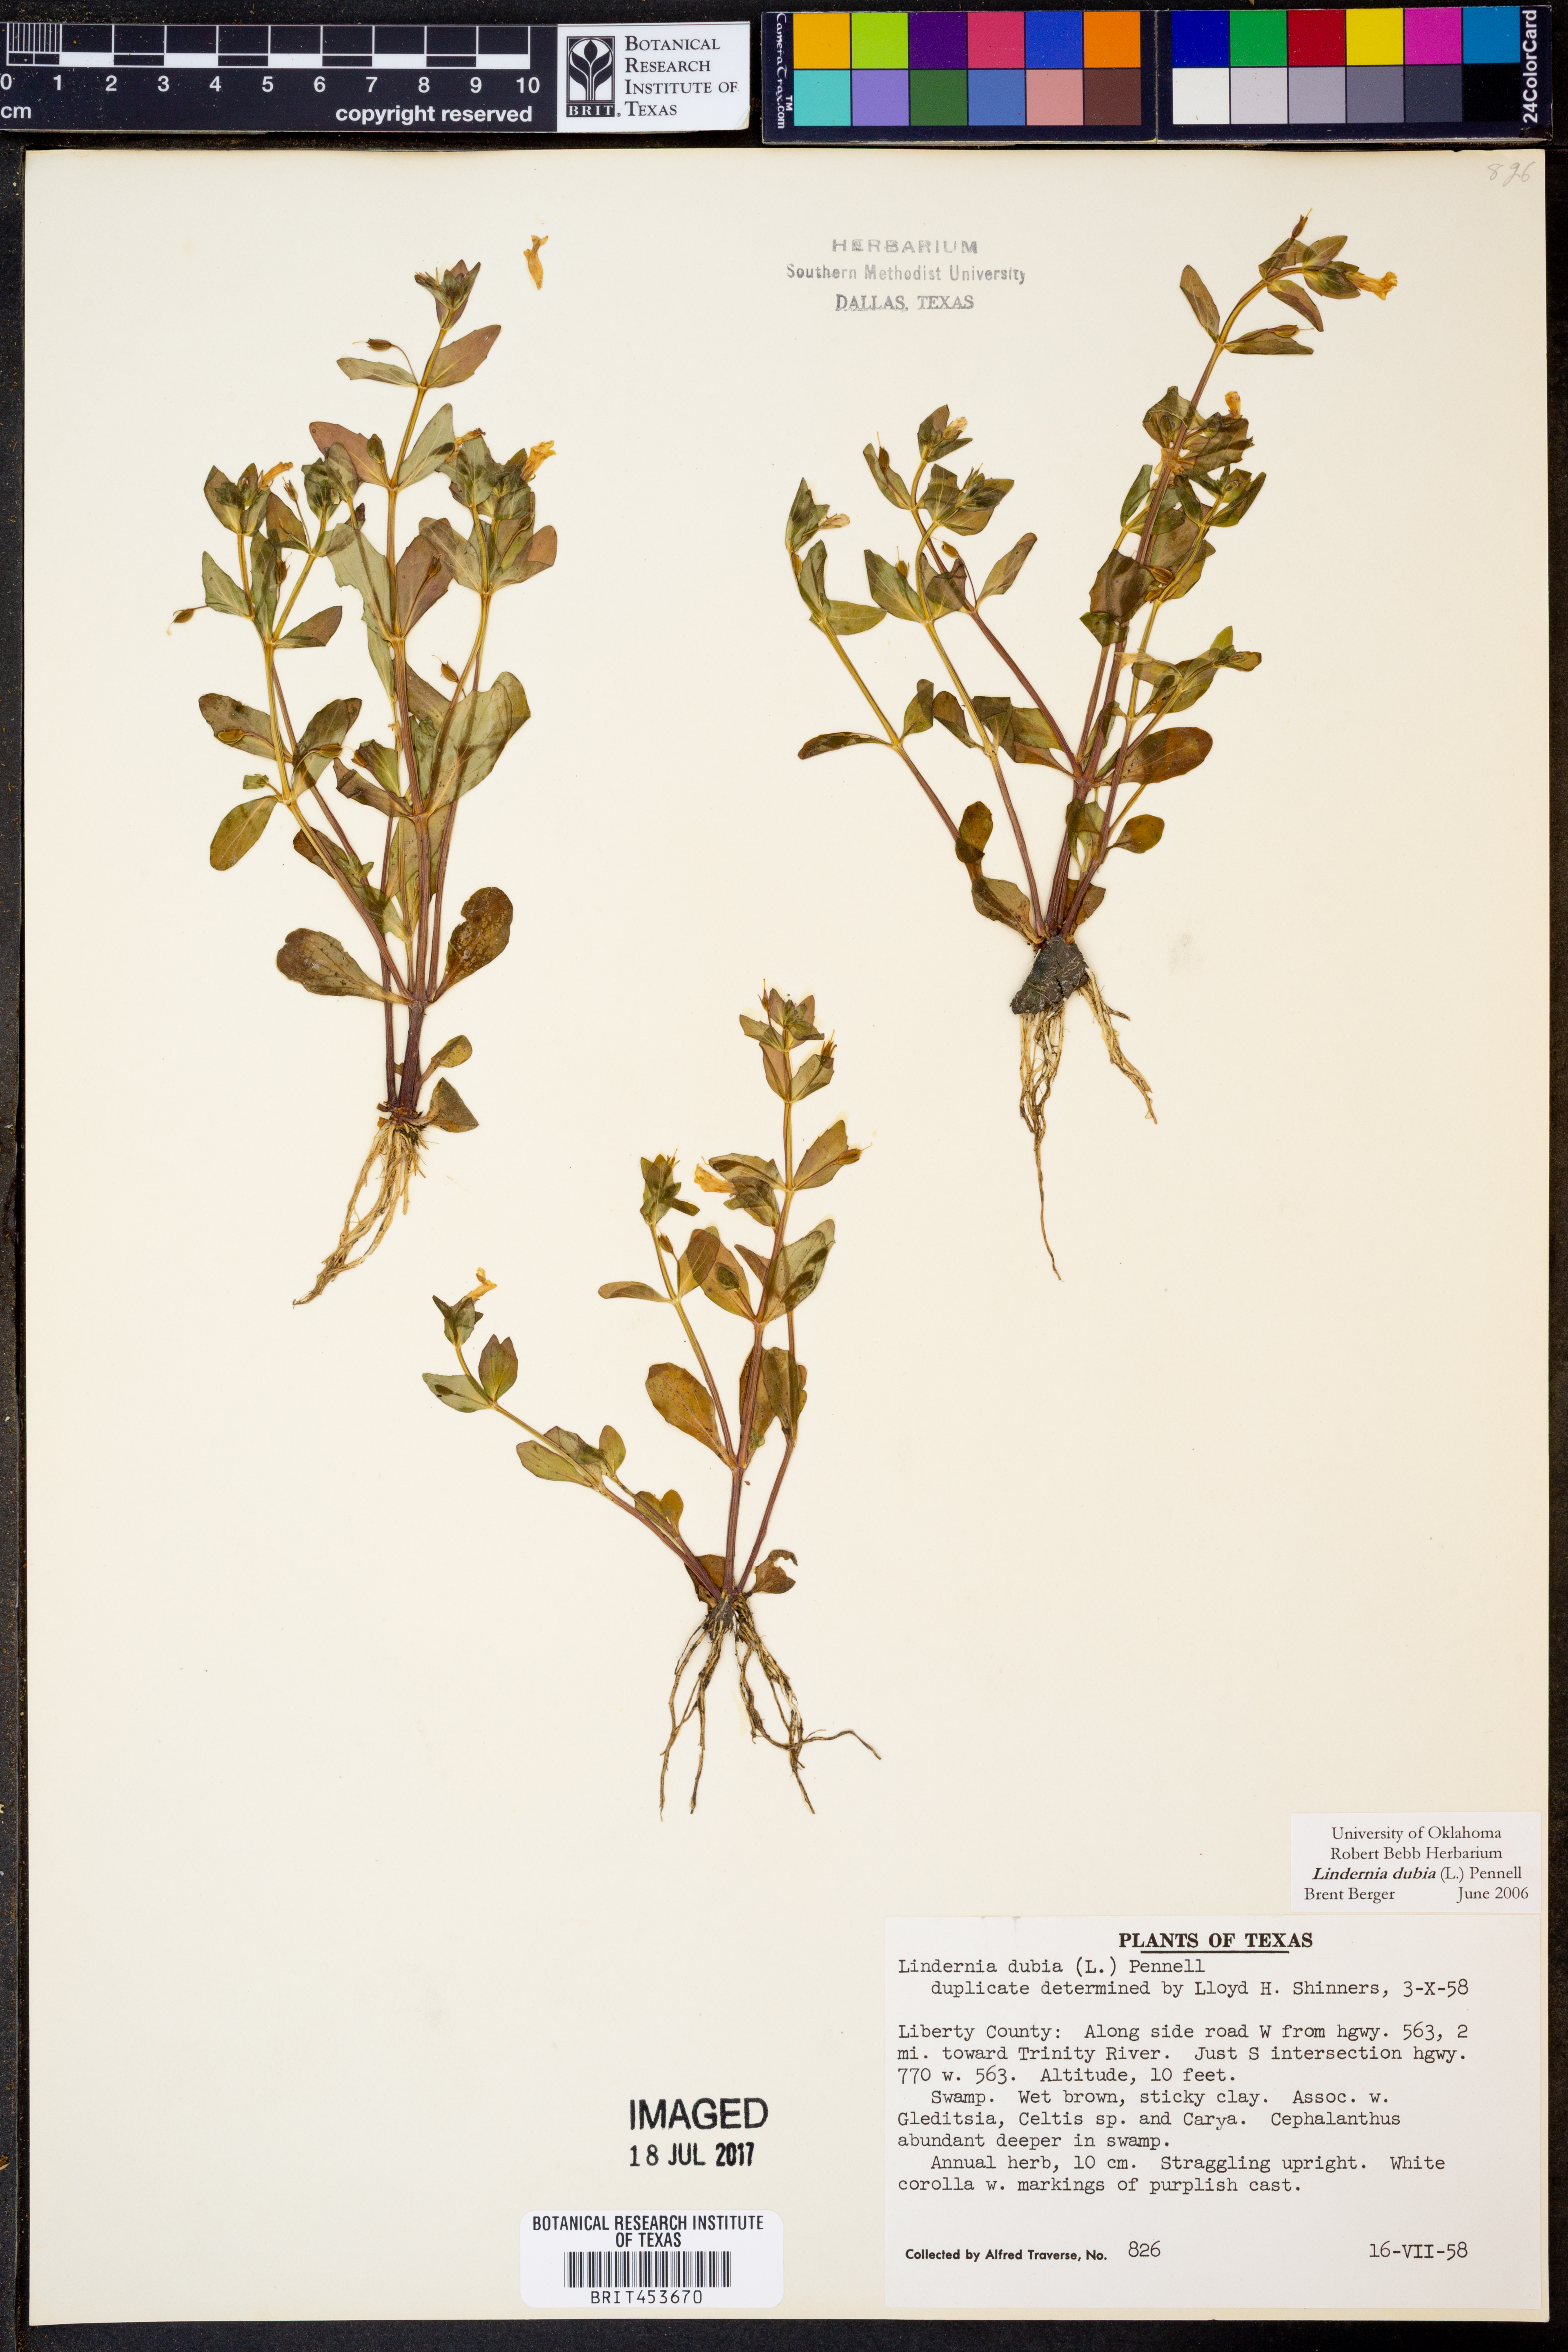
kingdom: Plantae
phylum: Tracheophyta
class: Magnoliopsida
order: Lamiales
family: Linderniaceae
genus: Lindernia
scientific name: Lindernia dubia
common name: Annual false pimpernel
